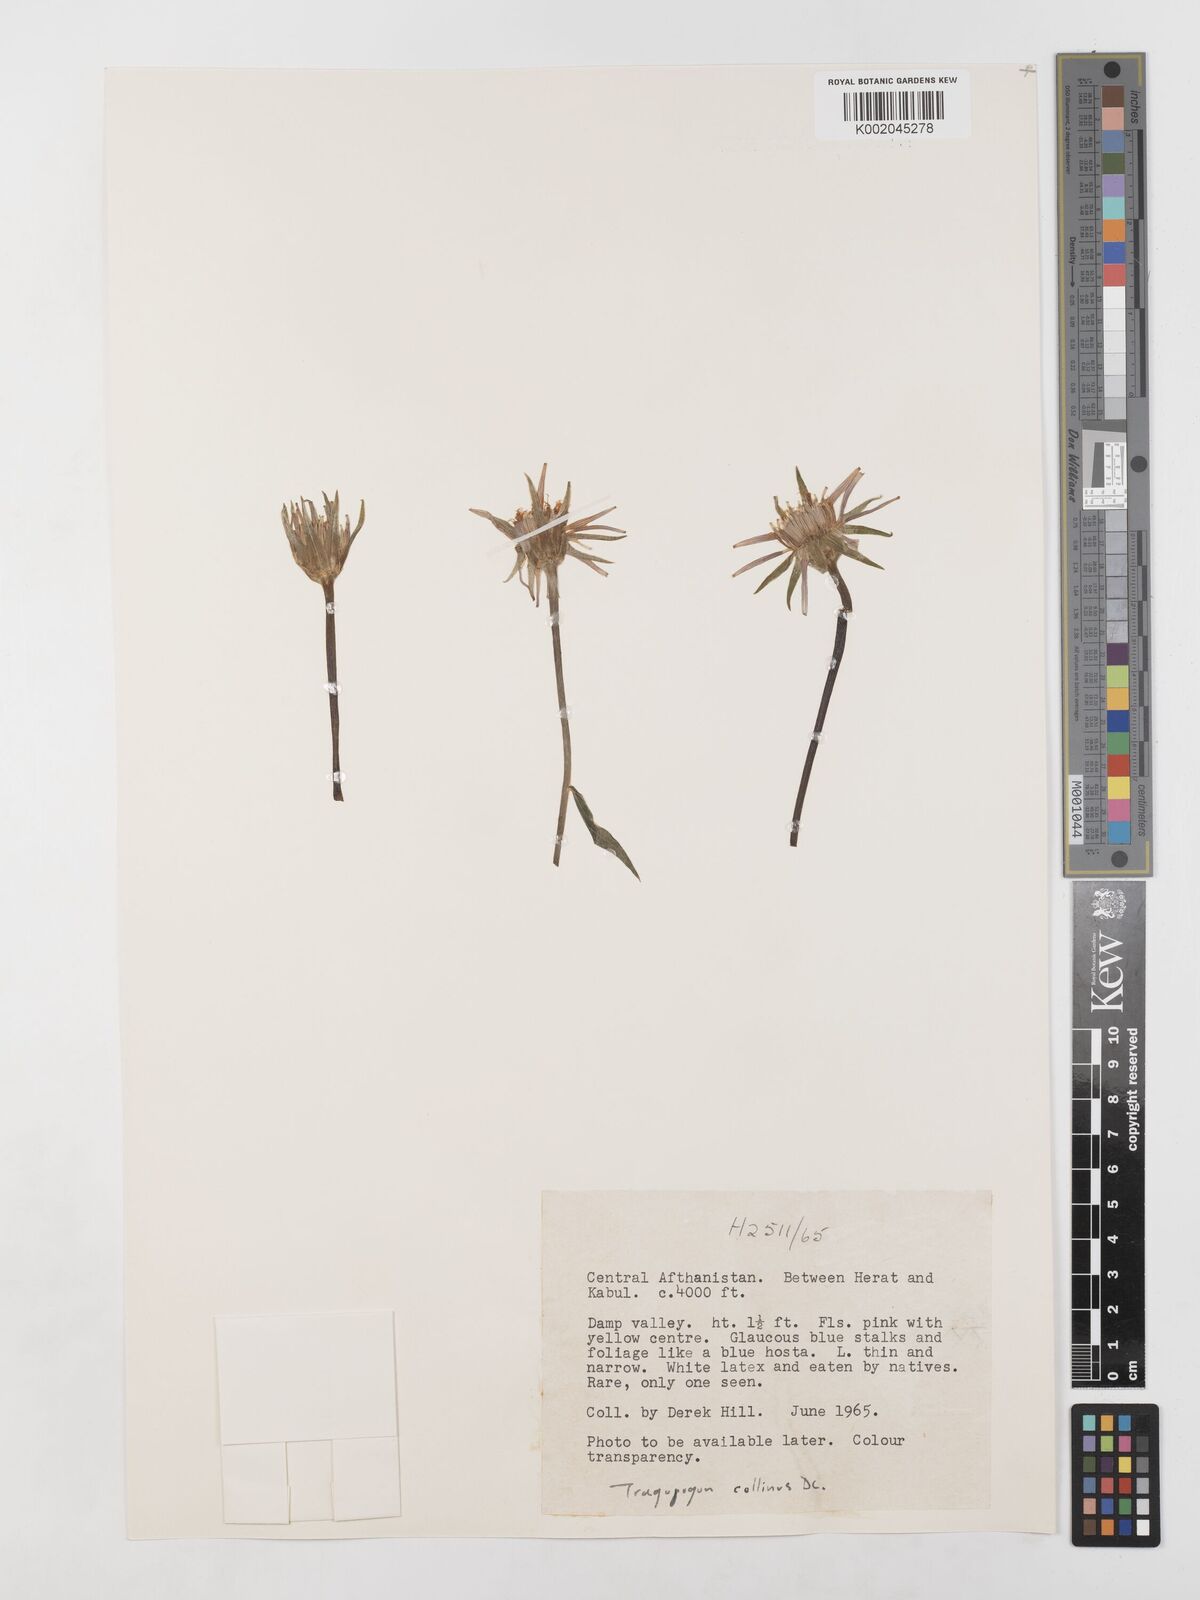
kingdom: Plantae
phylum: Tracheophyta
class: Magnoliopsida
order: Asterales
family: Asteraceae
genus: Tragopogon
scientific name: Tragopogon collinus
